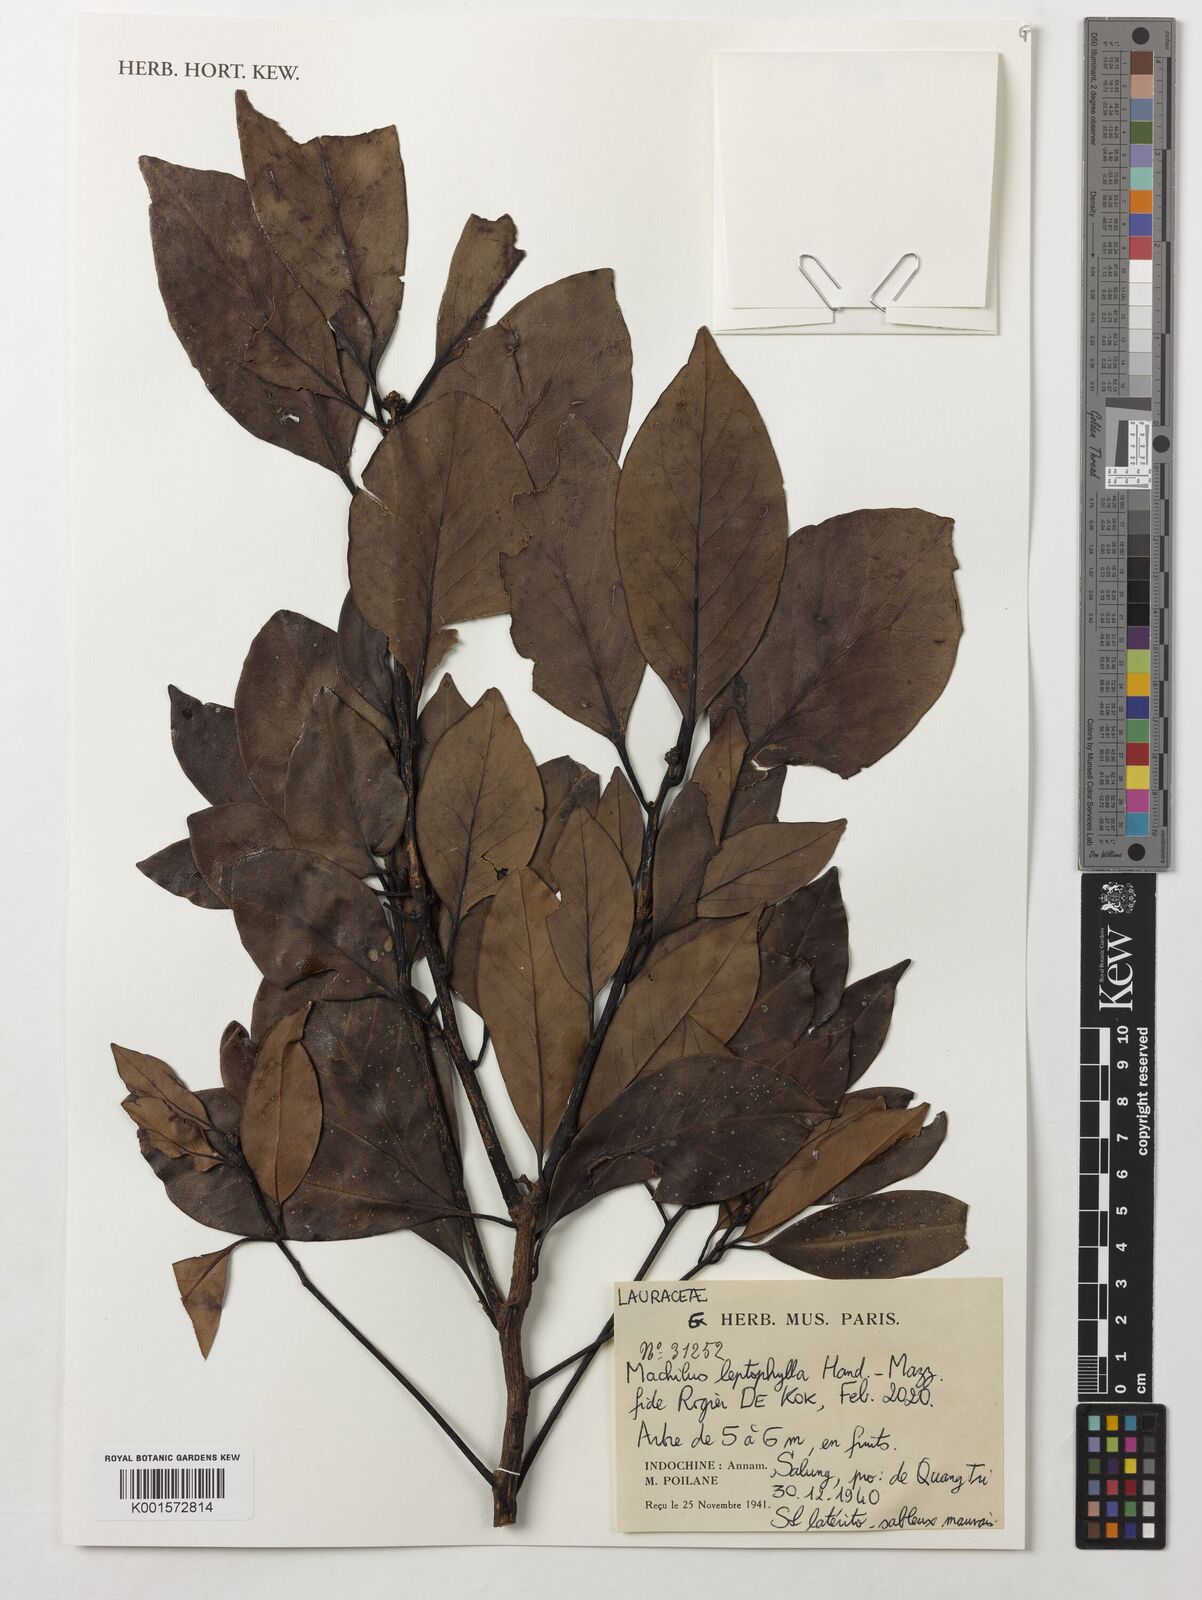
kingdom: Plantae
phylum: Tracheophyta
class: Magnoliopsida
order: Laurales
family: Lauraceae
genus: Machilus
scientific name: Machilus leptophylla
